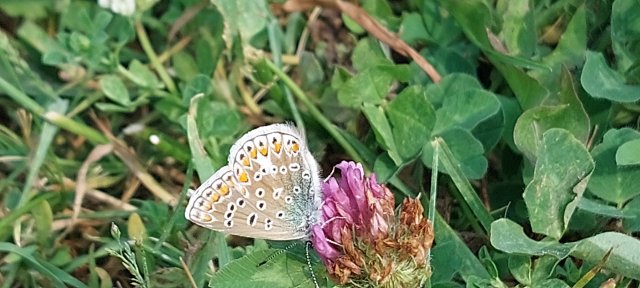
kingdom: Animalia
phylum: Arthropoda
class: Insecta
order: Lepidoptera
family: Lycaenidae
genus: Polyommatus
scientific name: Polyommatus icarus
